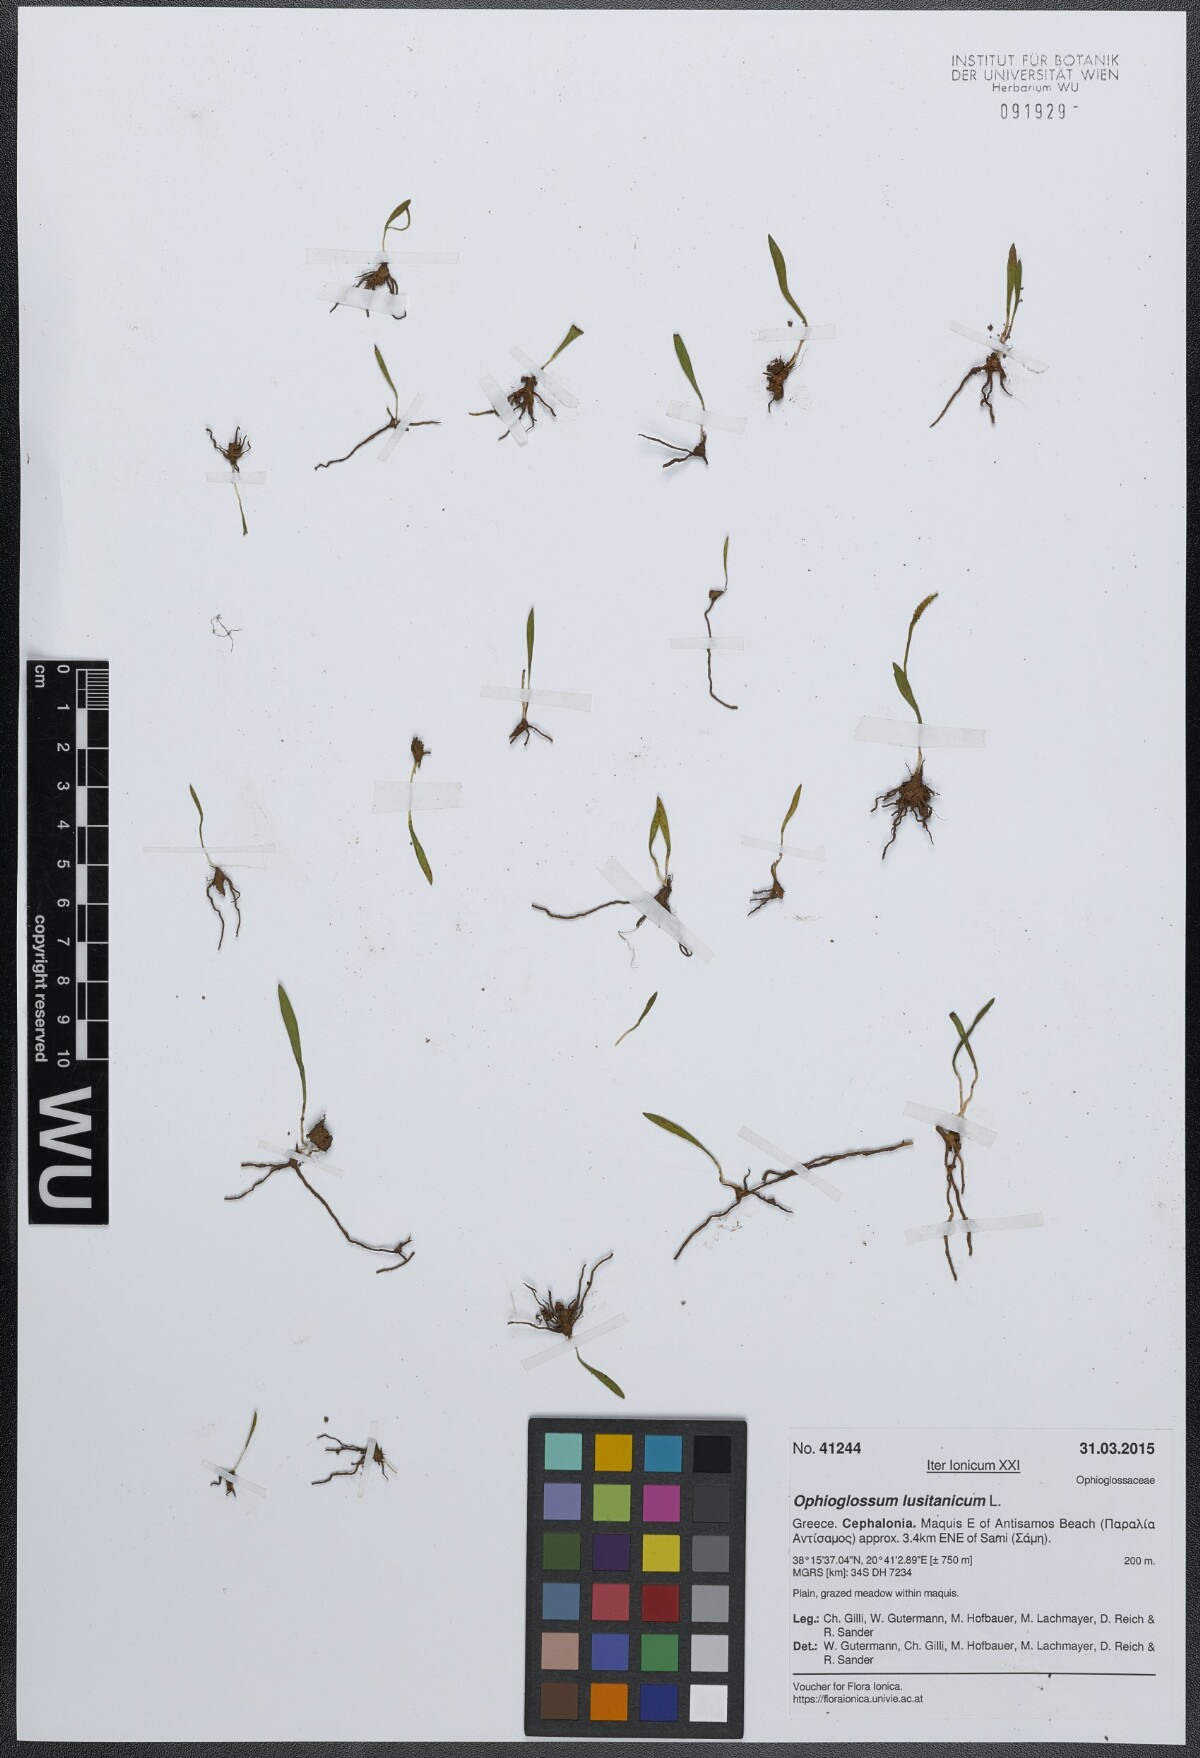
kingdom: Plantae
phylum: Tracheophyta
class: Polypodiopsida
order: Ophioglossales
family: Ophioglossaceae
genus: Ophioglossum
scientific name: Ophioglossum lusitanicum
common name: Least adder's-tongue
